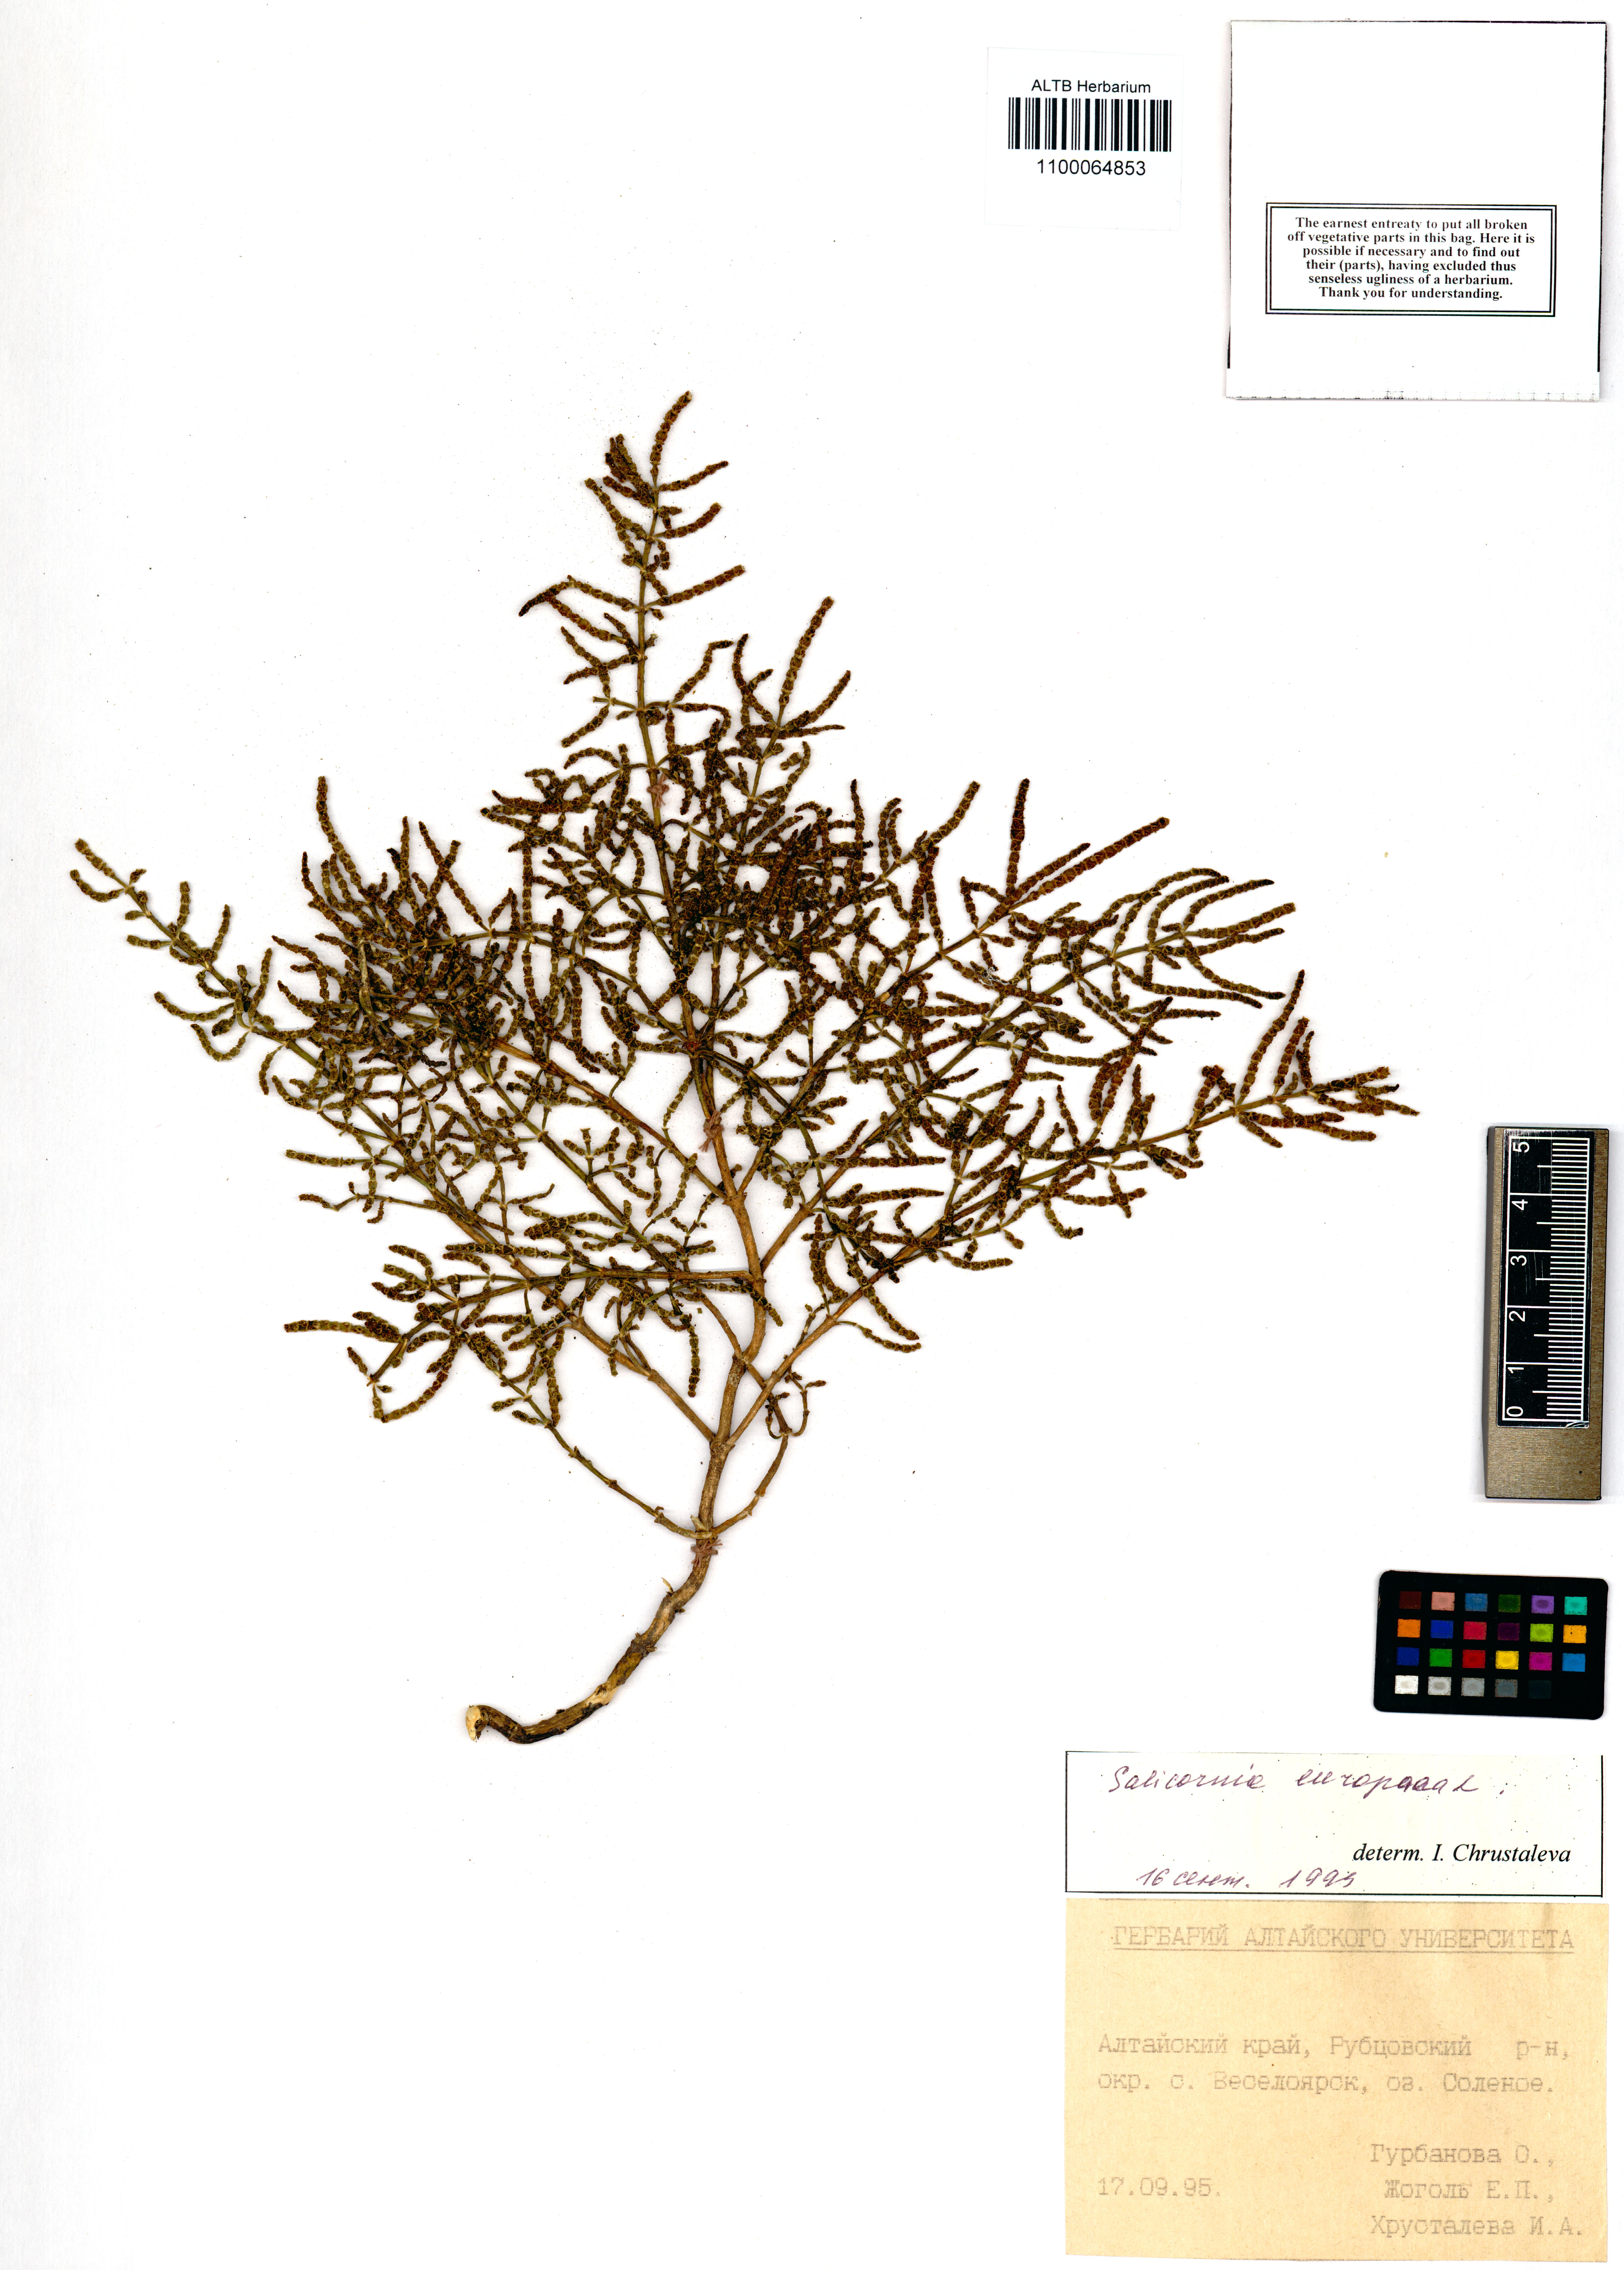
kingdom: Plantae
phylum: Tracheophyta
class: Magnoliopsida
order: Caryophyllales
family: Amaranthaceae
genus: Salicornia
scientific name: Salicornia europaea
